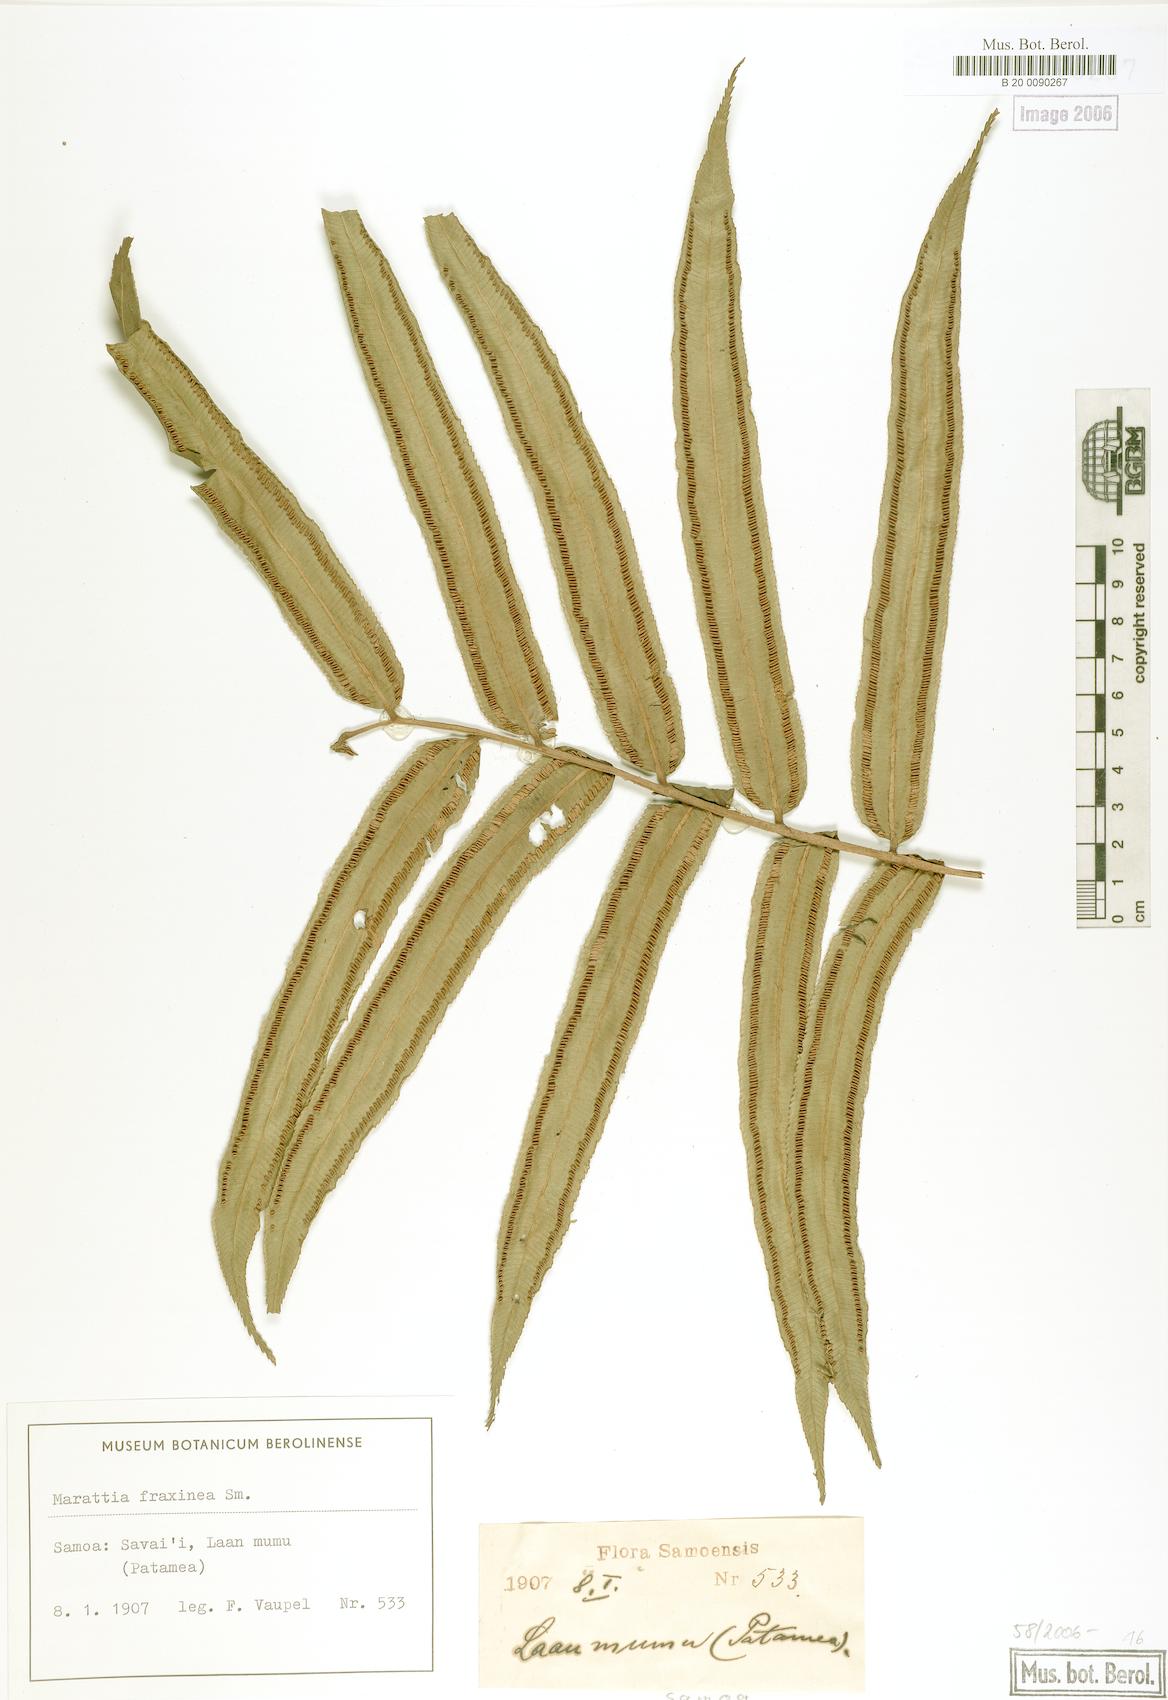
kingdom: Plantae
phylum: Tracheophyta
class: Polypodiopsida
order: Marattiales
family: Marattiaceae
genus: Ptisana
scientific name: Ptisana smithii
